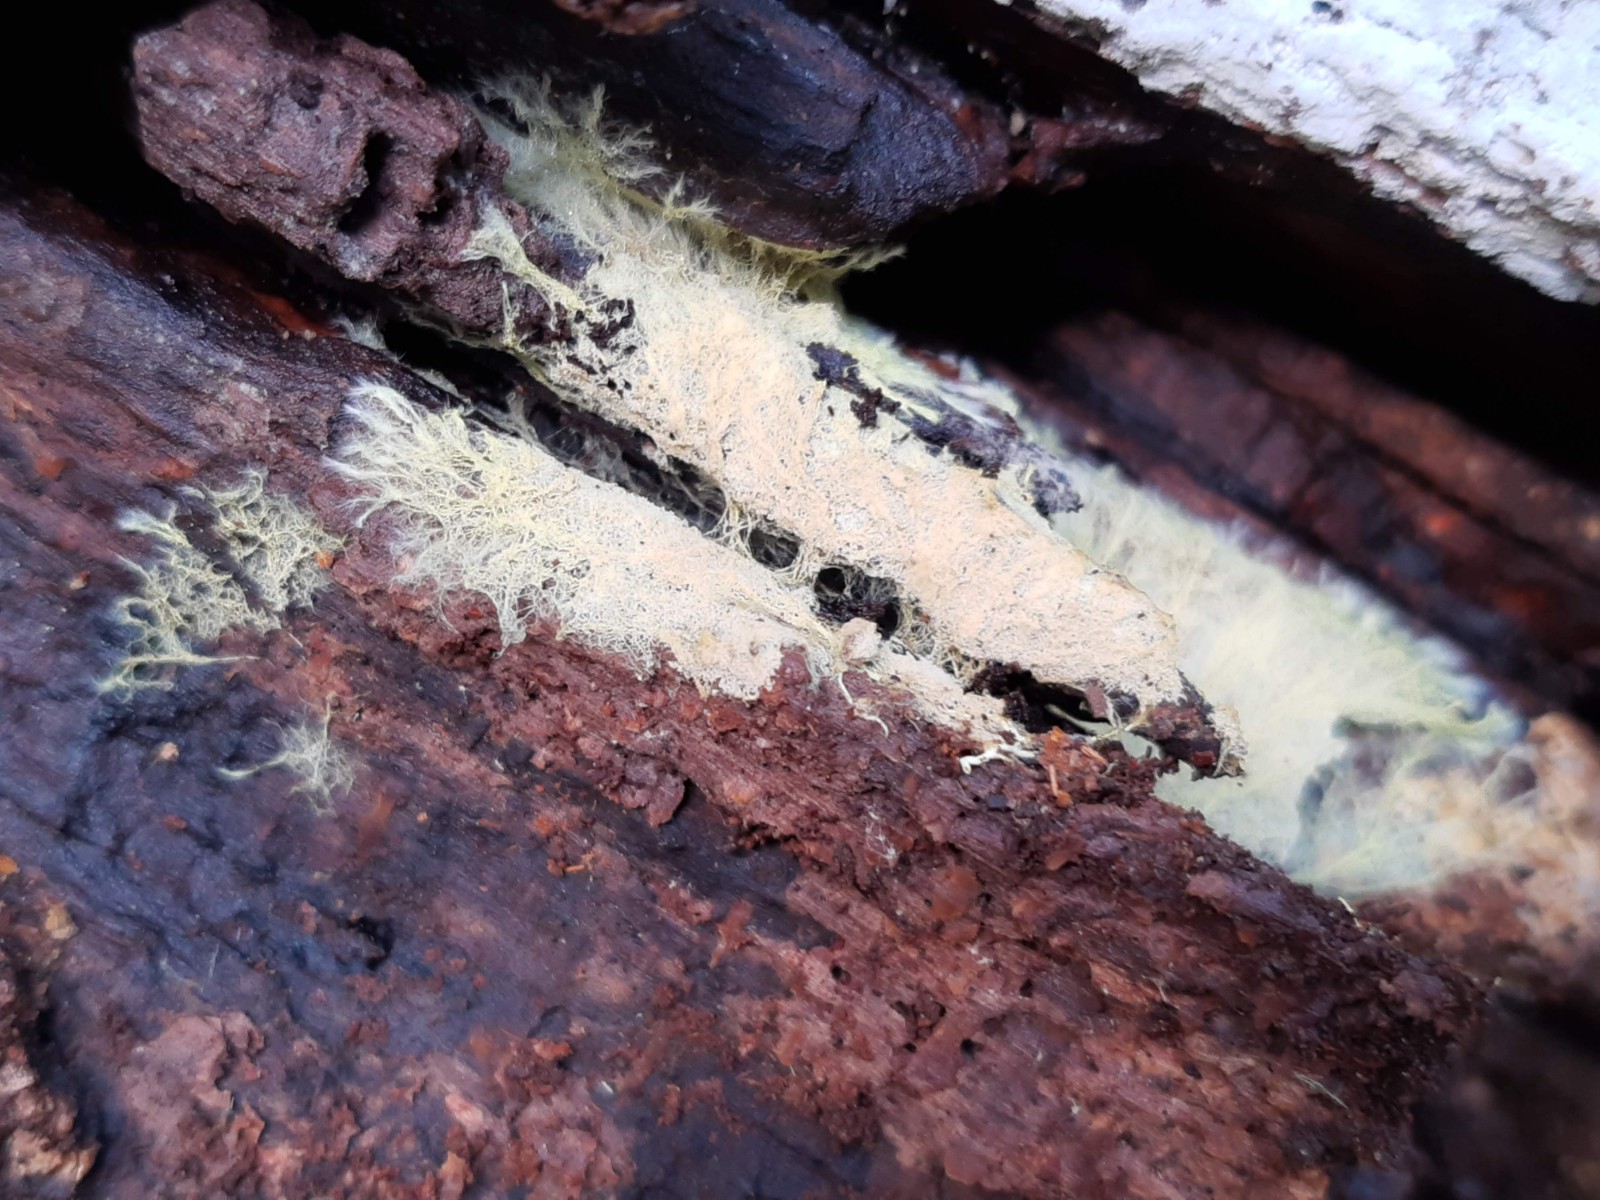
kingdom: Fungi
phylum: Basidiomycota
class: Agaricomycetes
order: Russulales
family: Xenasmataceae
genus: Xenasmatella
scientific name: Xenasmatella vaga
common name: svovl-strenghinde
